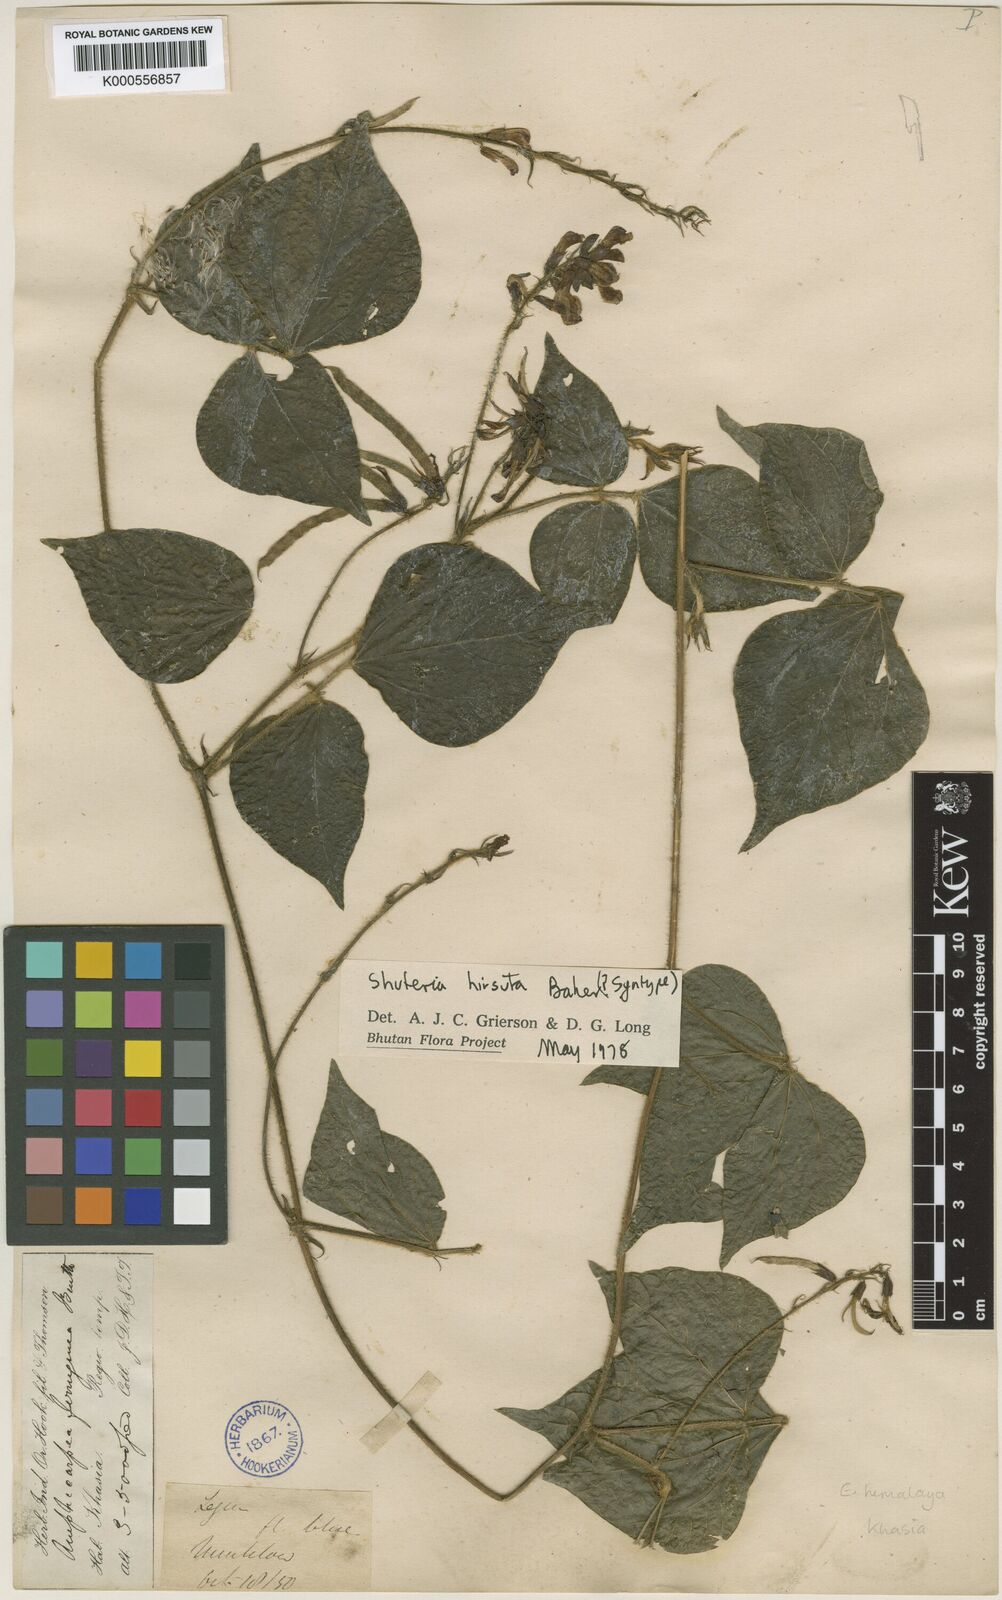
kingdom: Plantae
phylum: Tracheophyta
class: Magnoliopsida
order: Fabales
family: Fabaceae
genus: Harashuteria
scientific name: Harashuteria hirsuta
